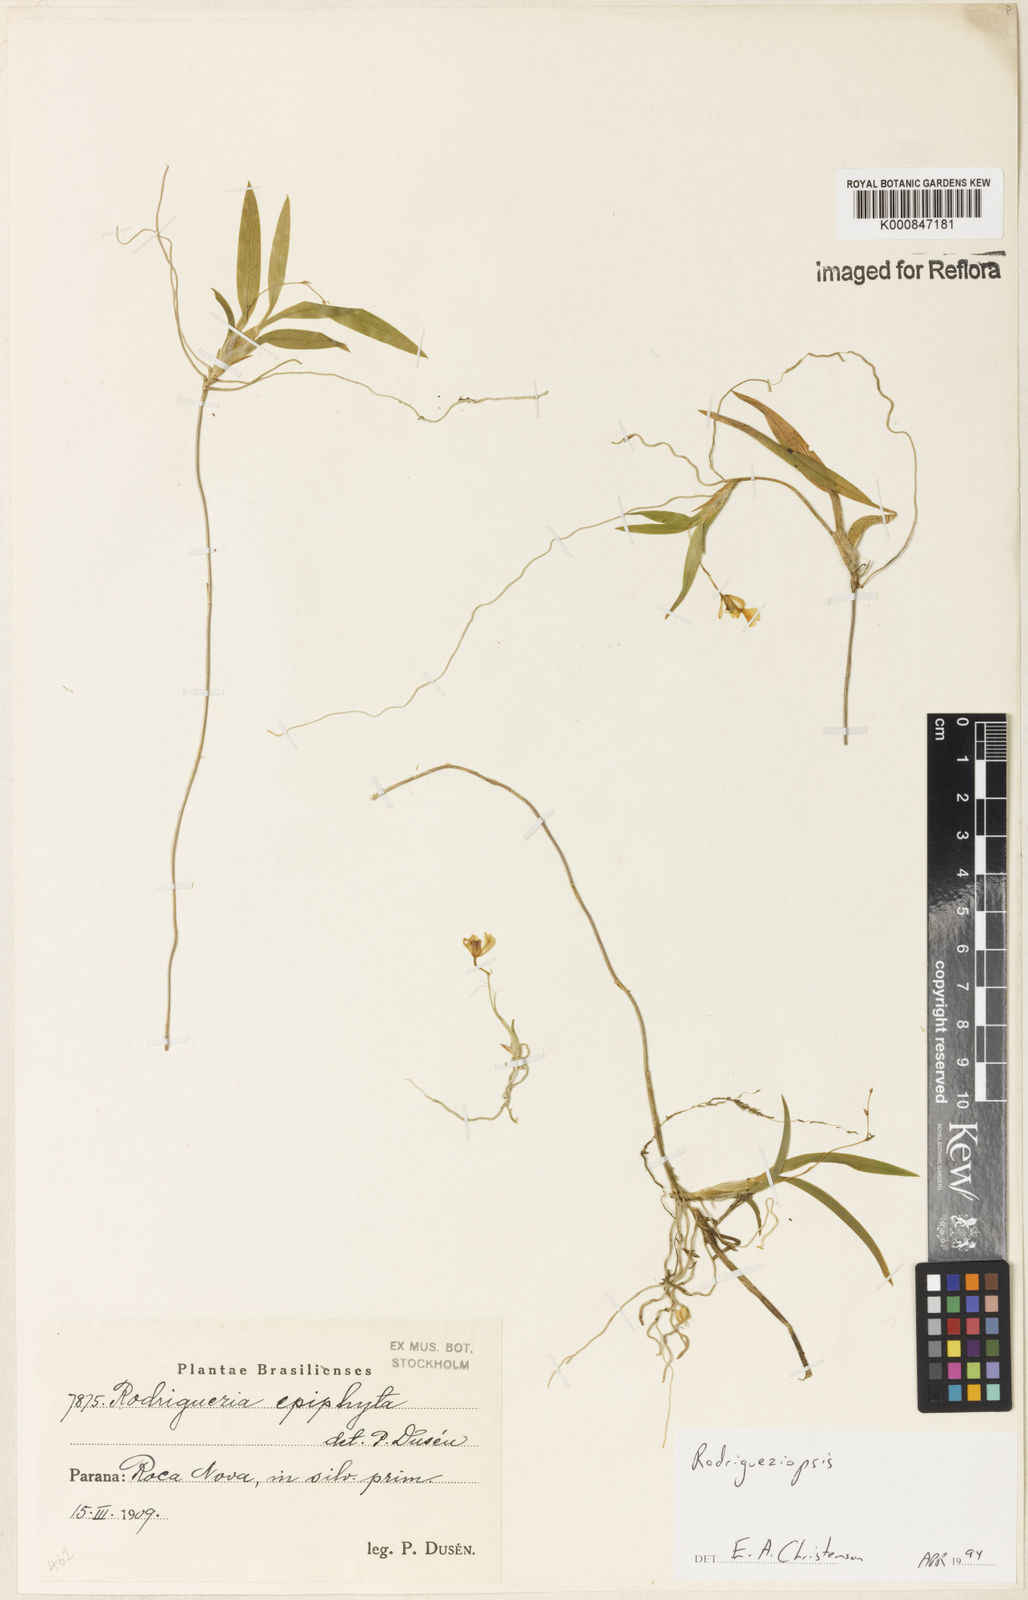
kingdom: Plantae
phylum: Tracheophyta
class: Liliopsida
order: Asparagales
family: Orchidaceae
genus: Gomesa
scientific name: Gomesa microphyta
